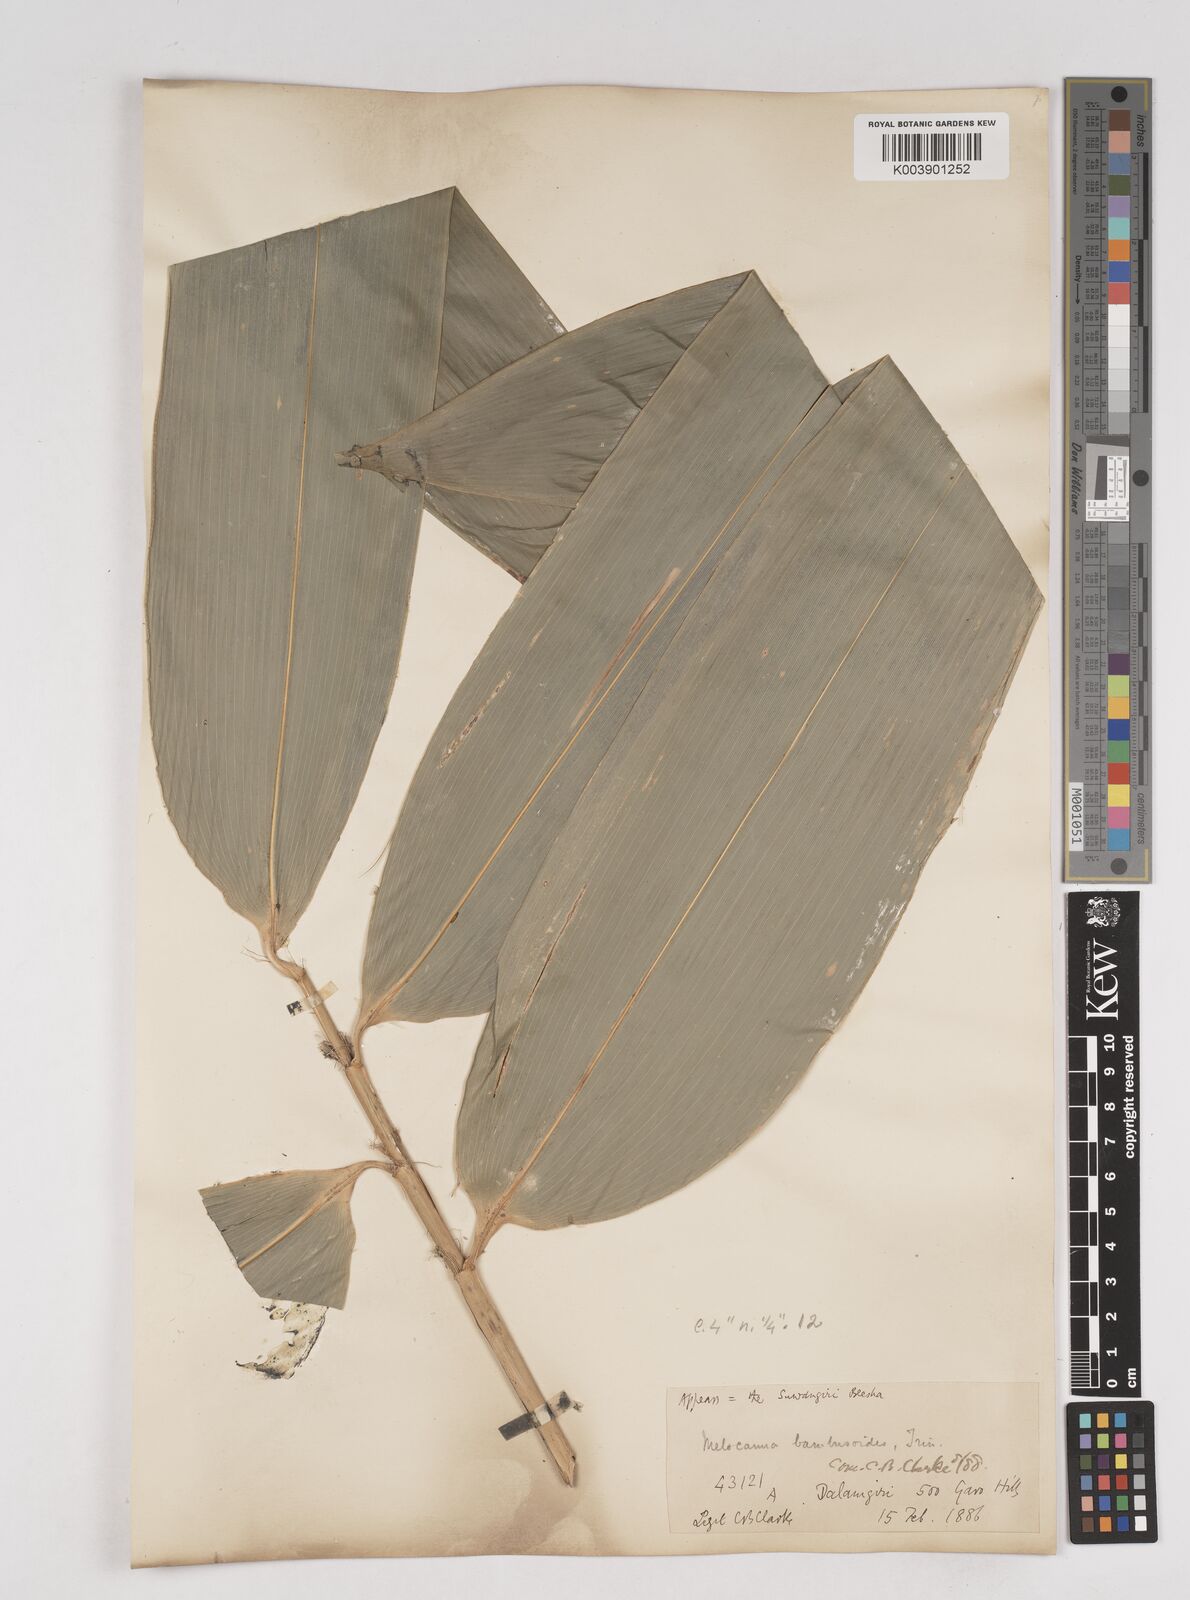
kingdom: Plantae
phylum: Tracheophyta
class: Liliopsida
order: Poales
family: Poaceae
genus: Melocanna
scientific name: Melocanna baccifera
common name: Berry bamboo
